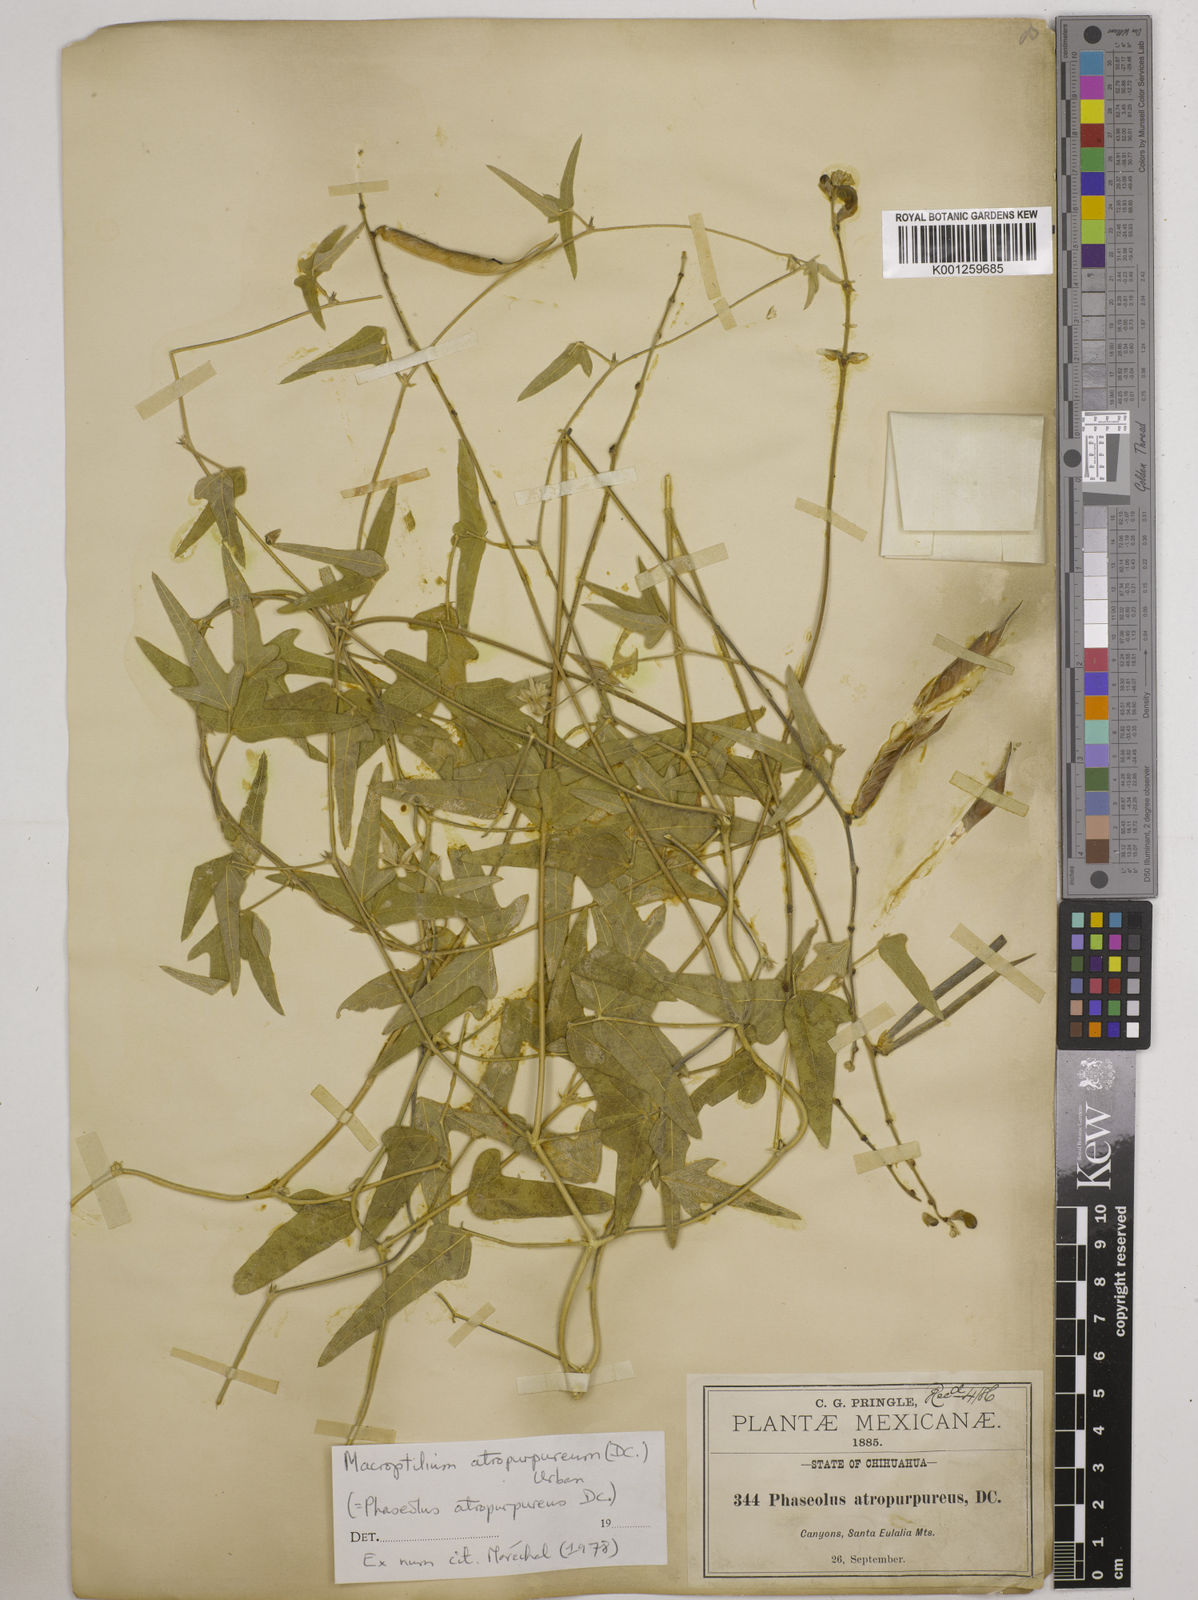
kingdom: Plantae
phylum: Tracheophyta
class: Magnoliopsida
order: Fabales
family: Fabaceae
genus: Macroptilium
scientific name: Macroptilium atropurpureum
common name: Purple bushbean
